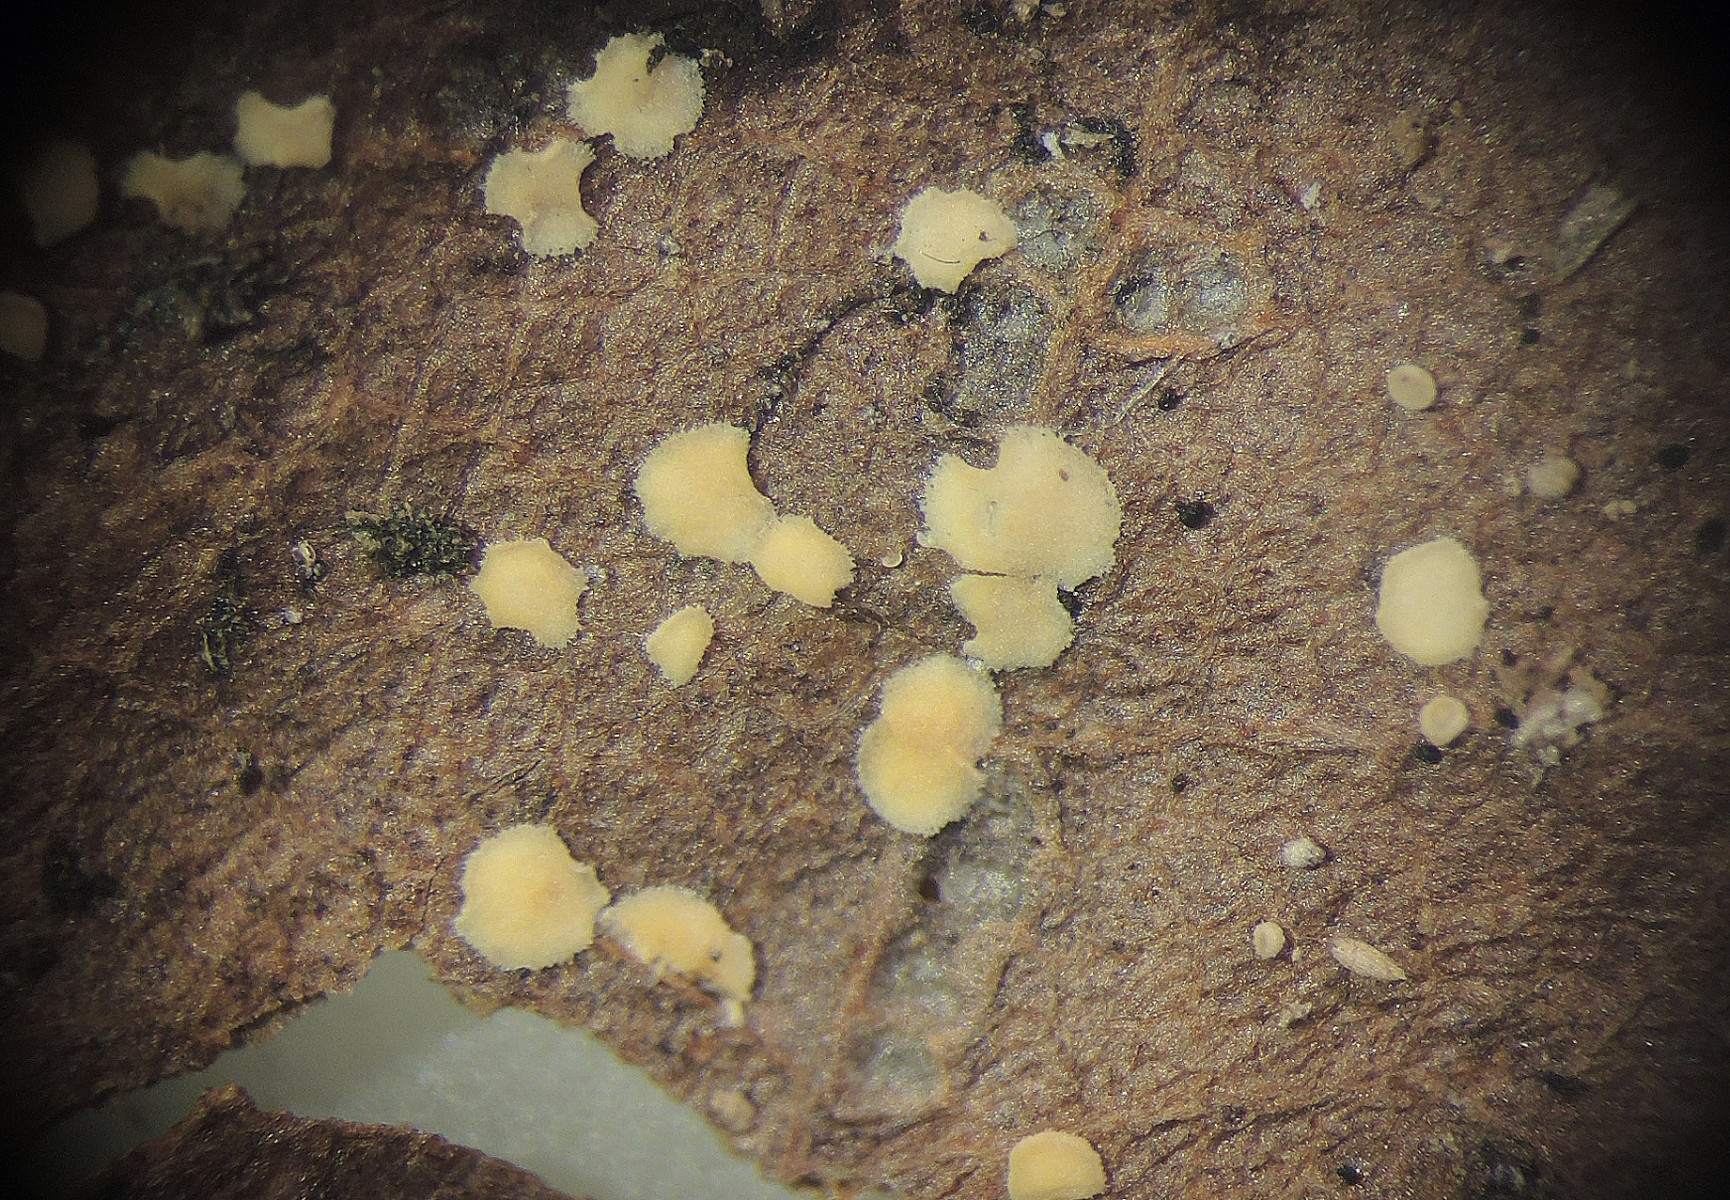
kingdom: Fungi
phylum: Ascomycota
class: Leotiomycetes
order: Helotiales
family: Pezizellaceae
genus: Calycellina
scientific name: Calycellina
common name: hårskive
